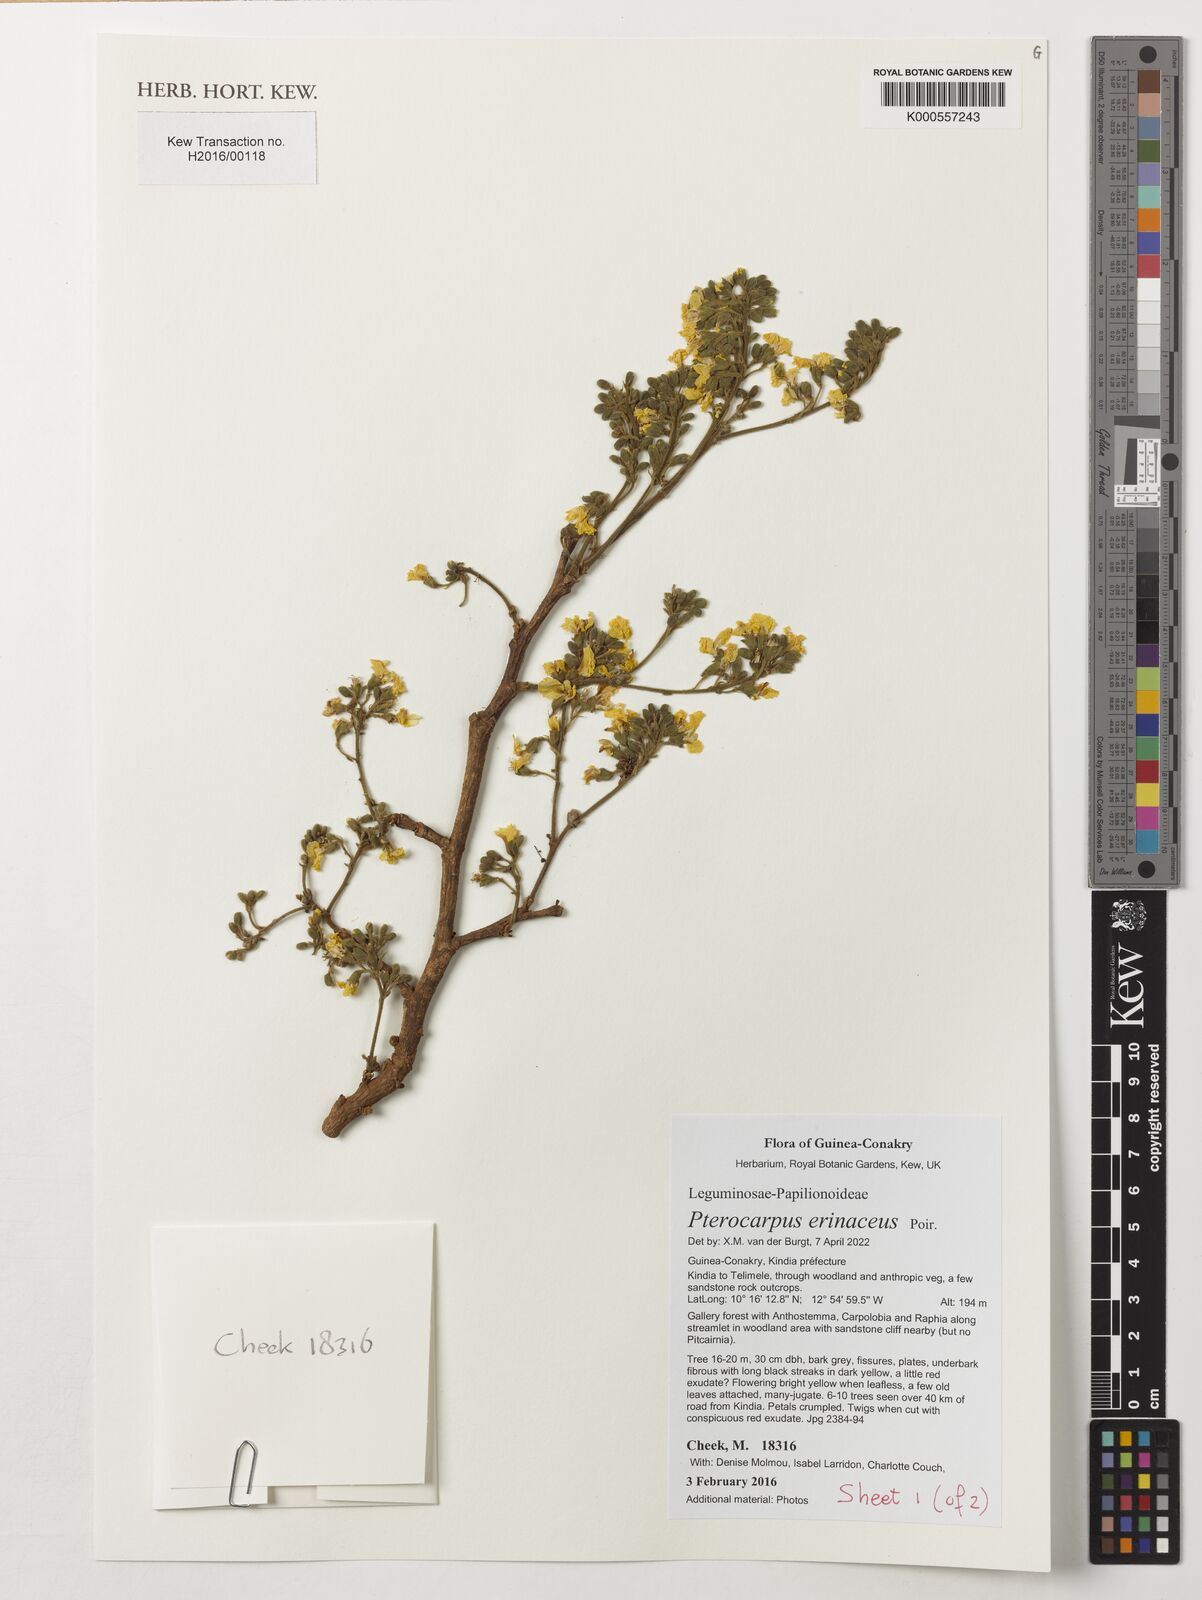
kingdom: Plantae
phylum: Tracheophyta
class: Magnoliopsida
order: Fabales
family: Fabaceae
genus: Mucuna
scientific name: Mucuna pruriens
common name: Cow-itch
